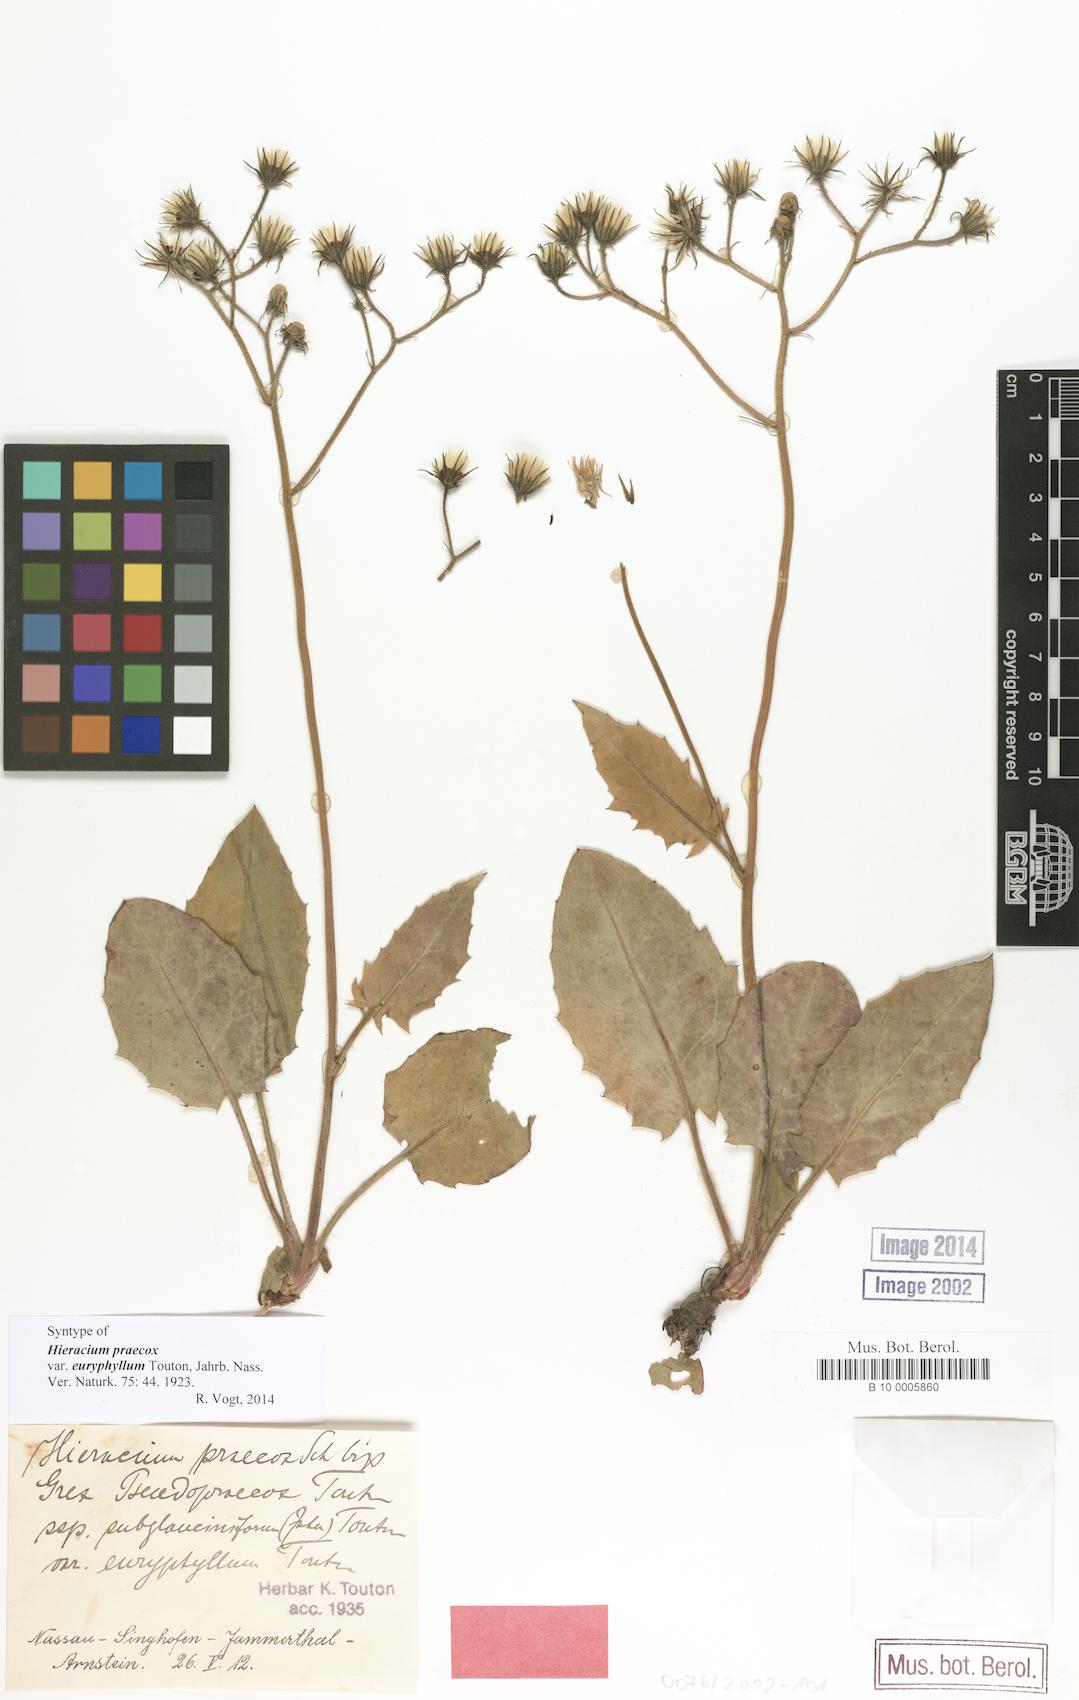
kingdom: Plantae
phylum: Tracheophyta
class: Magnoliopsida
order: Asterales
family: Asteraceae
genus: Hieracium
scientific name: Hieracium praecox
